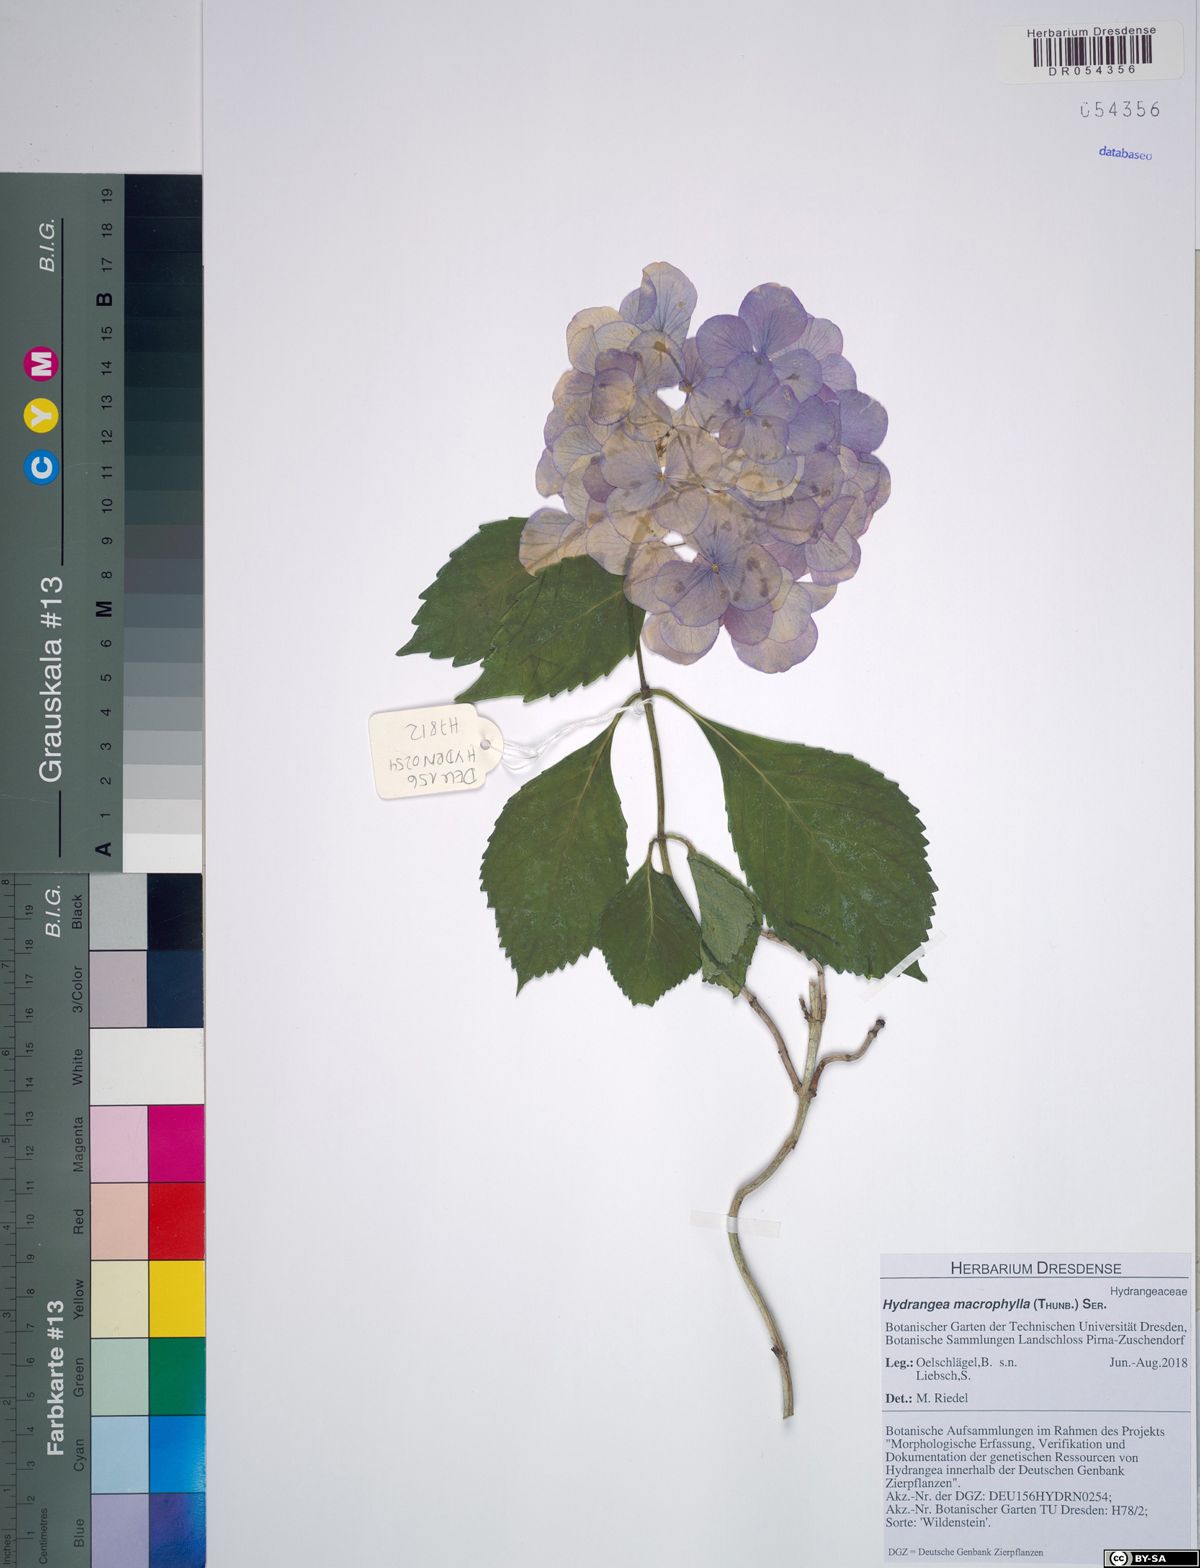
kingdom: Plantae
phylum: Tracheophyta
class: Magnoliopsida
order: Cornales
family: Hydrangeaceae
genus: Hydrangea
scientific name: Hydrangea macrophylla
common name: Hydrangea
